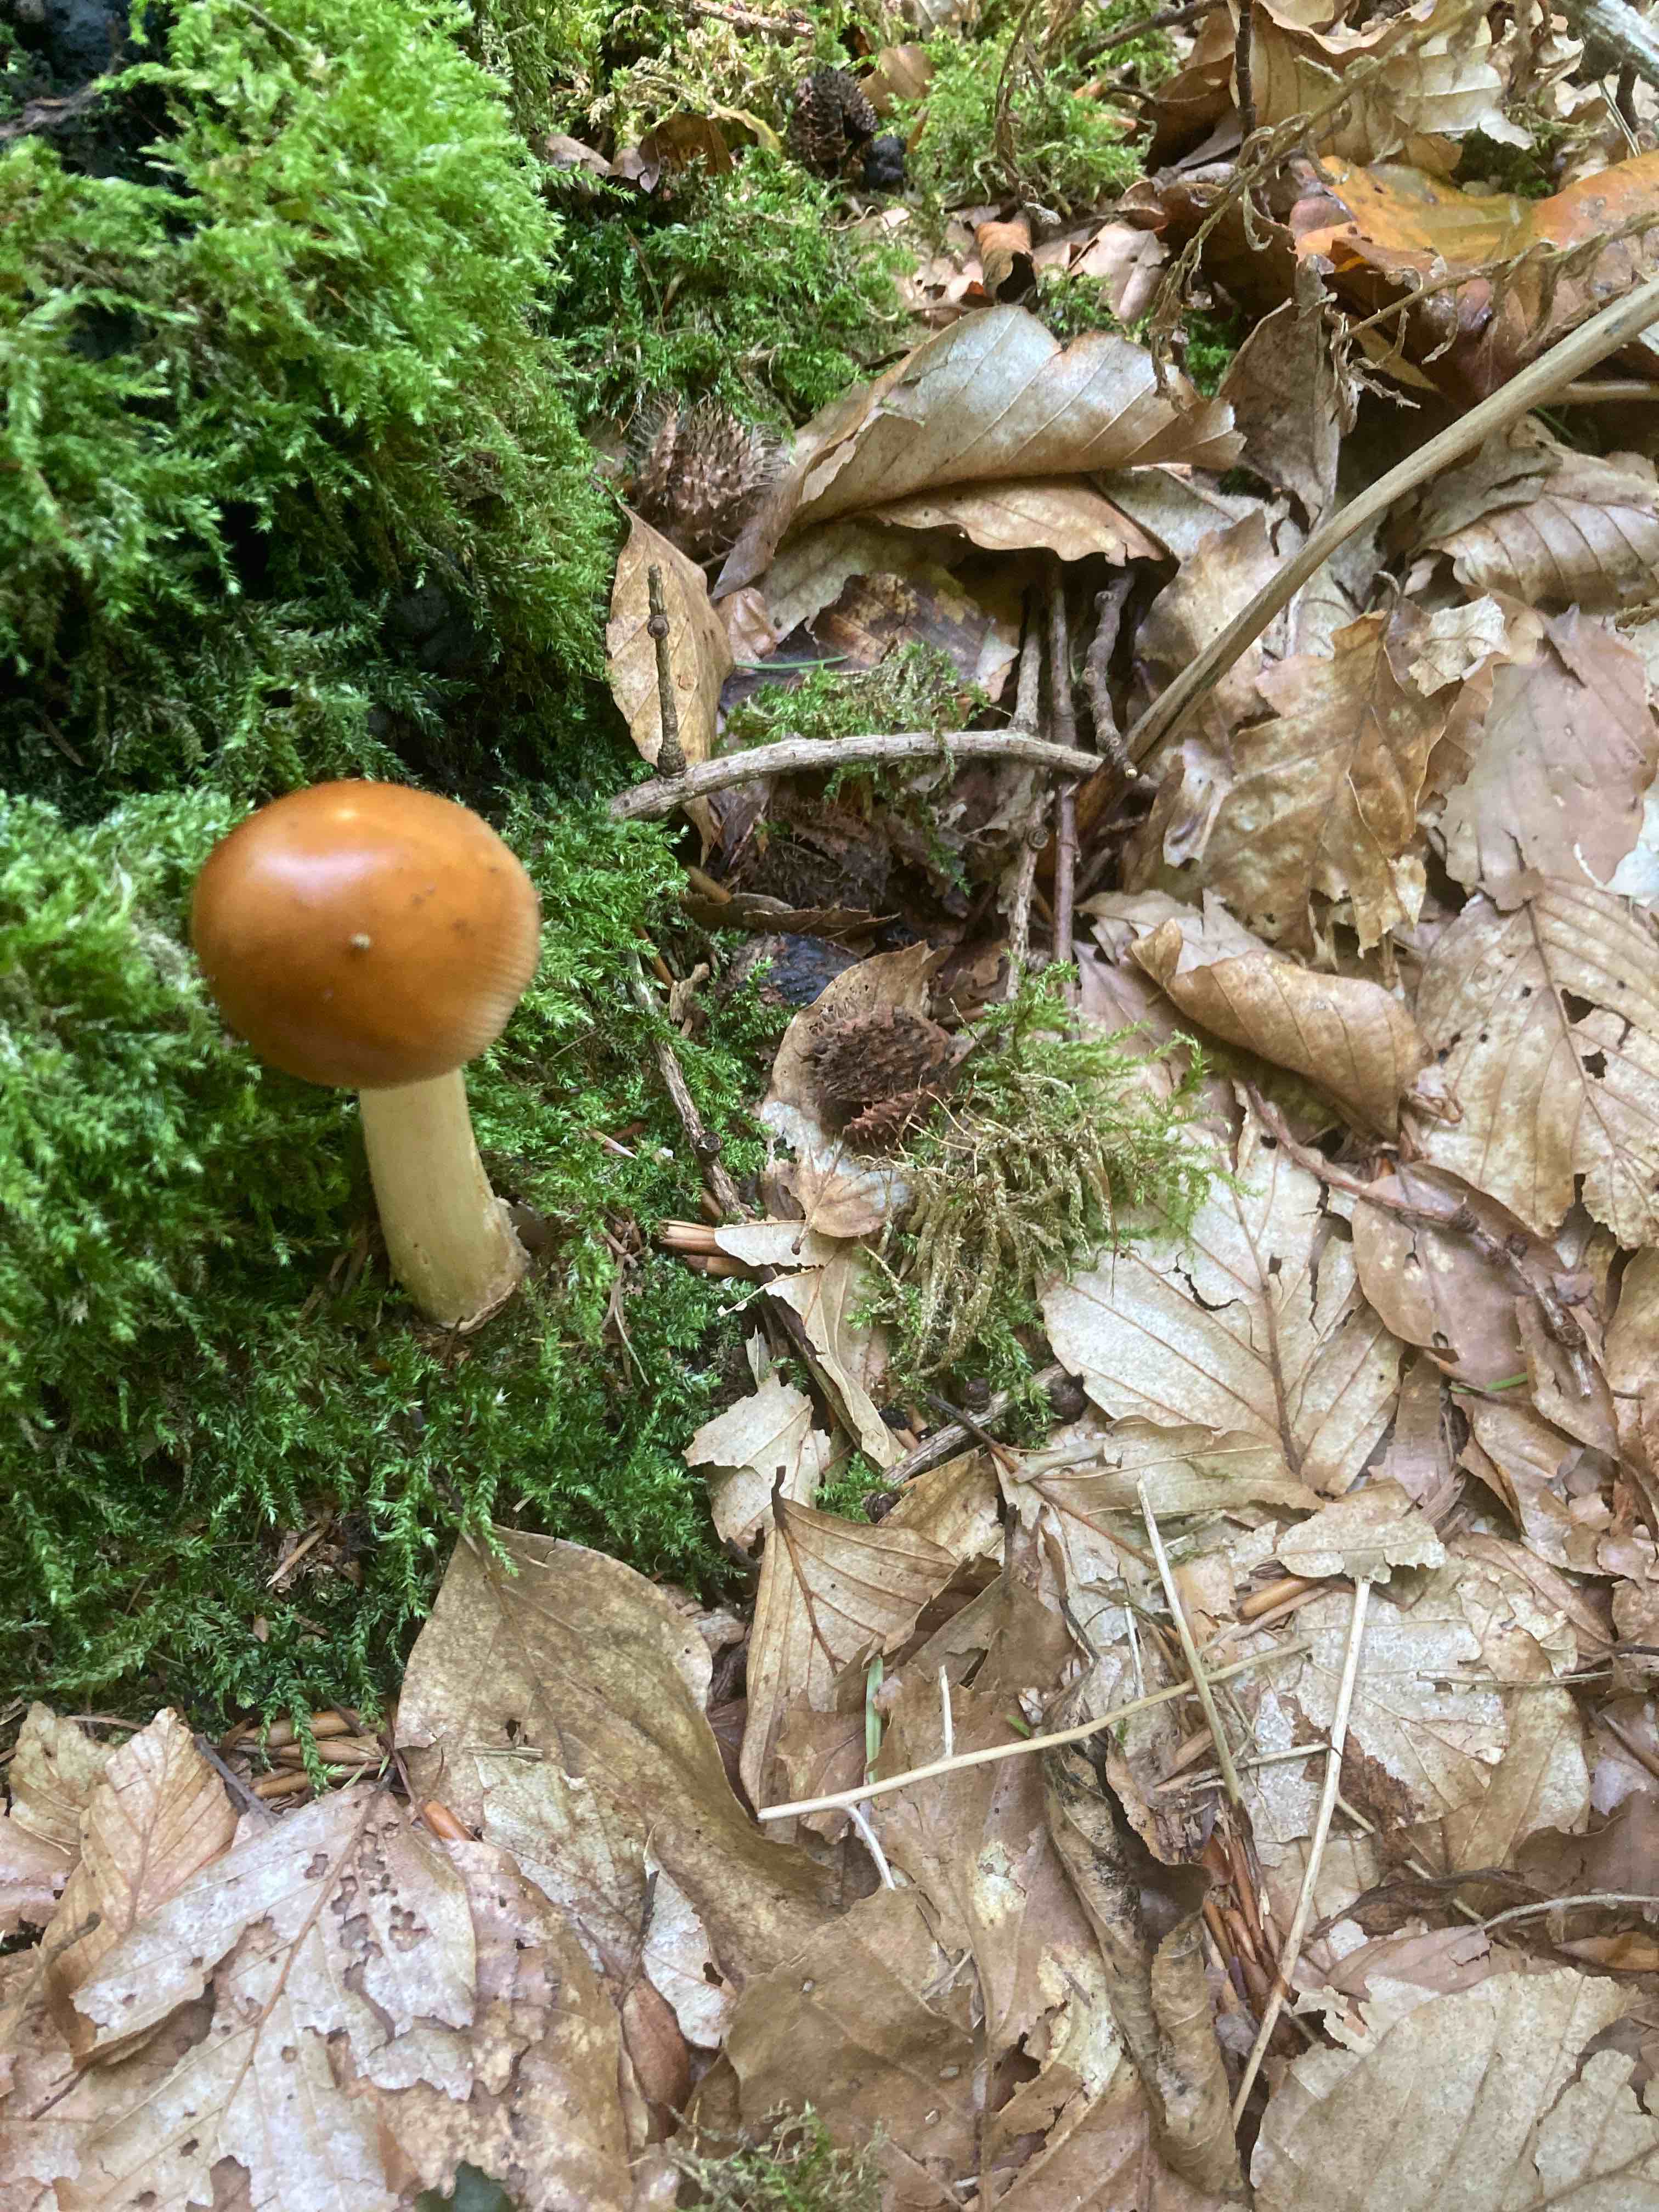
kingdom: Fungi
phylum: Basidiomycota
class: Agaricomycetes
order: Agaricales
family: Amanitaceae
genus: Amanita
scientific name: Amanita fulva
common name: brun kam-fluesvamp
